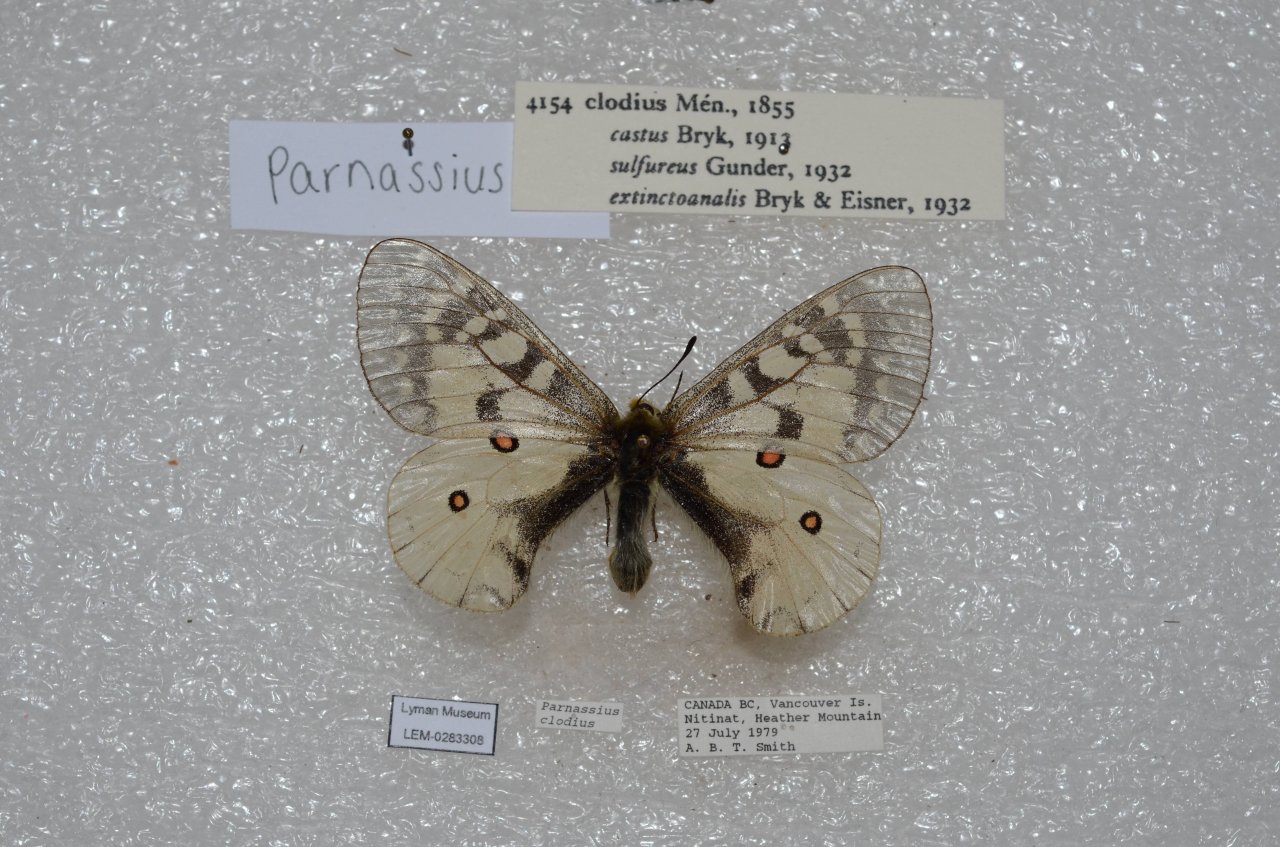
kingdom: Animalia
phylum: Arthropoda
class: Insecta
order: Lepidoptera
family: Papilionidae
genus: Parnassius
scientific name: Parnassius clodius
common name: Clodius Parnassian
